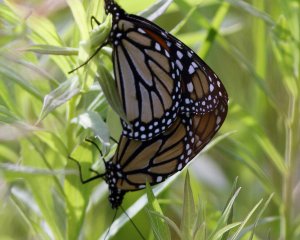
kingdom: Animalia
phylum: Arthropoda
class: Insecta
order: Lepidoptera
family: Nymphalidae
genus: Danaus
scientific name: Danaus plexippus
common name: Monarch
